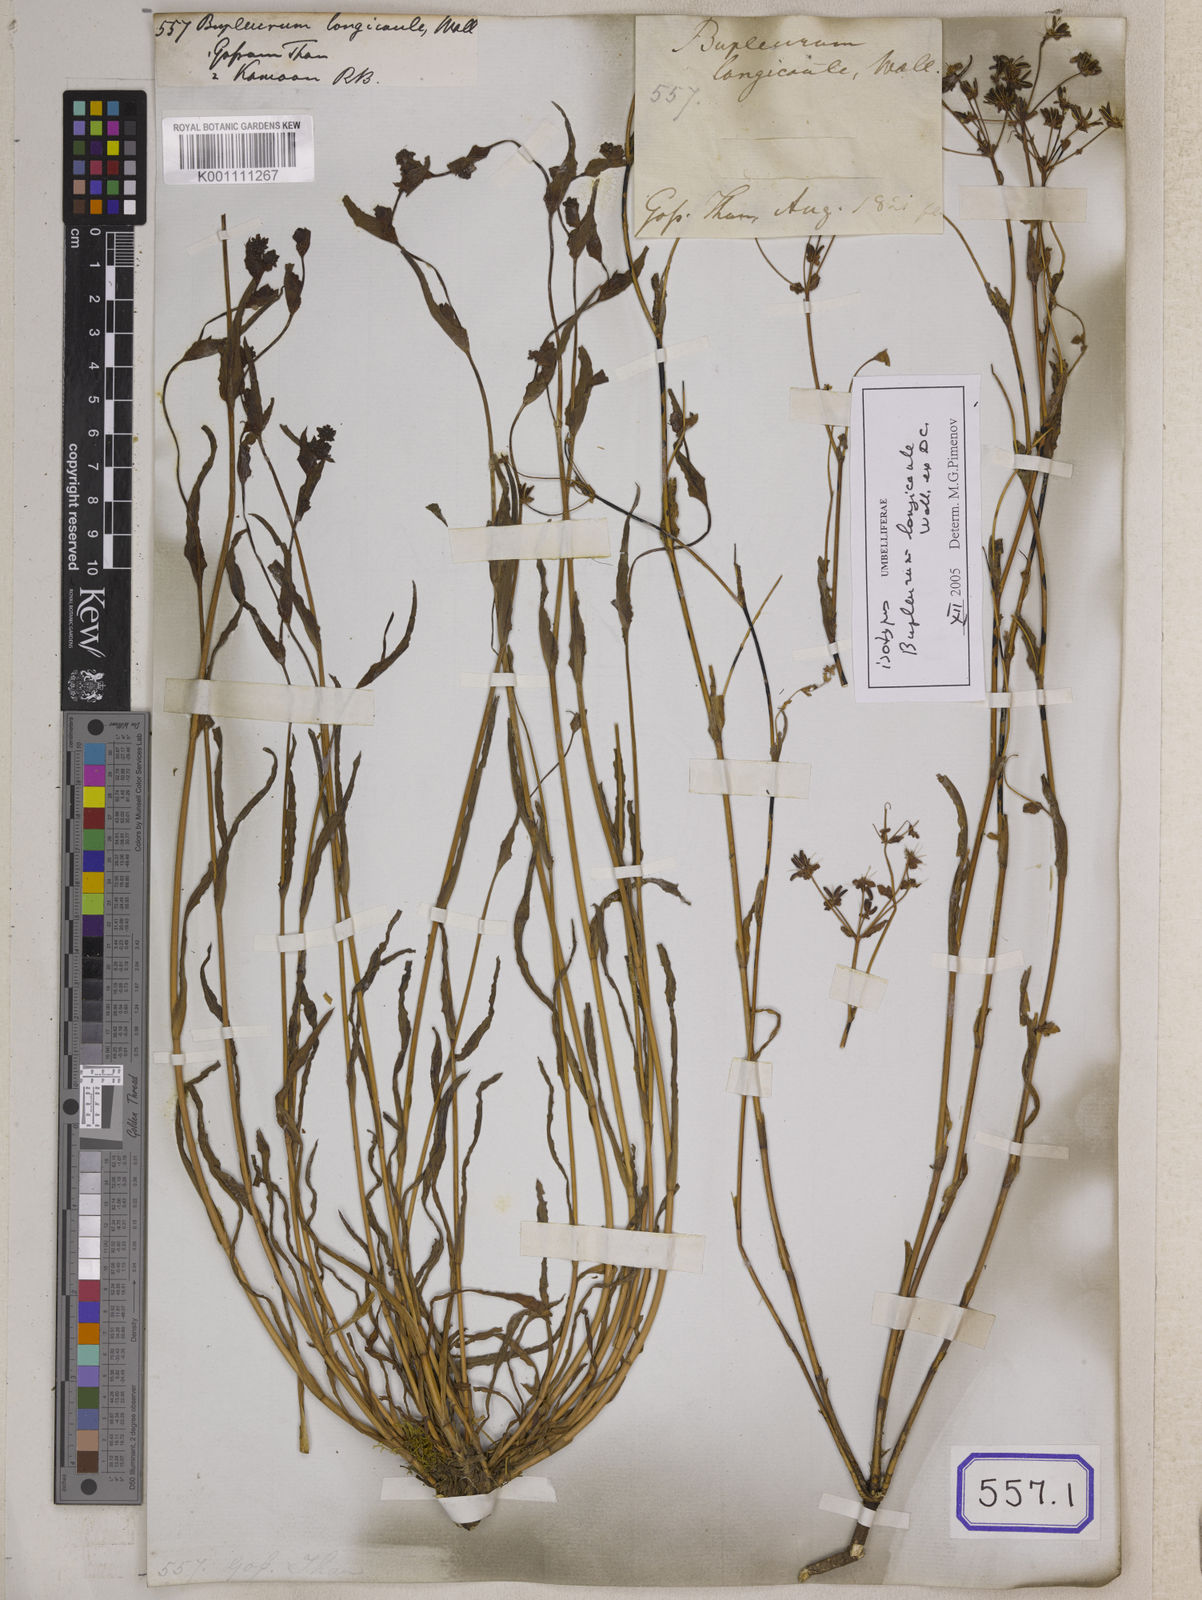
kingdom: Plantae
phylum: Tracheophyta
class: Magnoliopsida
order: Apiales
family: Apiaceae
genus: Bupleurum
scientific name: Bupleurum
